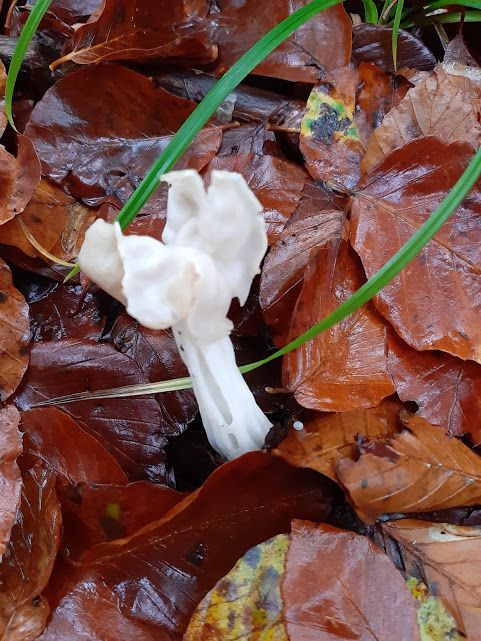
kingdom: Fungi
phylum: Ascomycota
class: Pezizomycetes
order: Pezizales
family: Helvellaceae
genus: Helvella
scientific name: Helvella crispa
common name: kruset foldhat
